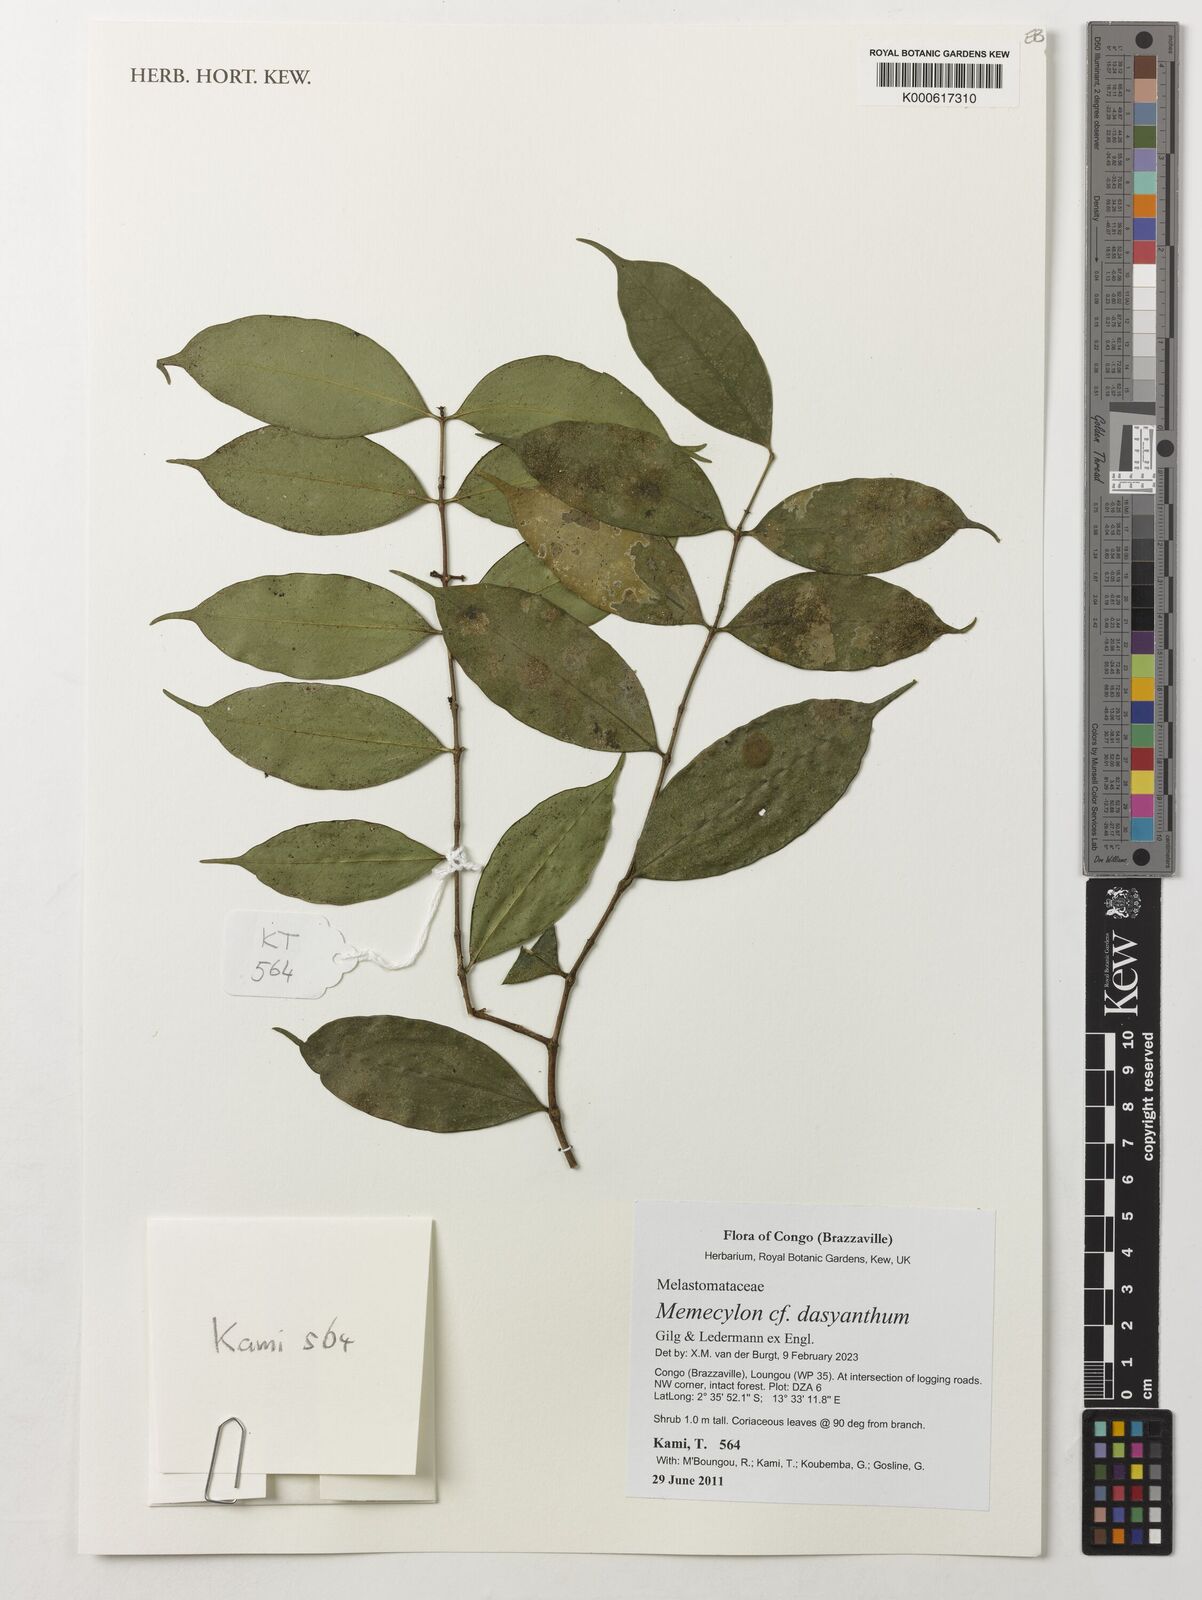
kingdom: Plantae
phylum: Tracheophyta
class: Magnoliopsida
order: Myrtales
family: Melastomataceae
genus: Memecylon
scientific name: Memecylon dasyanthum
